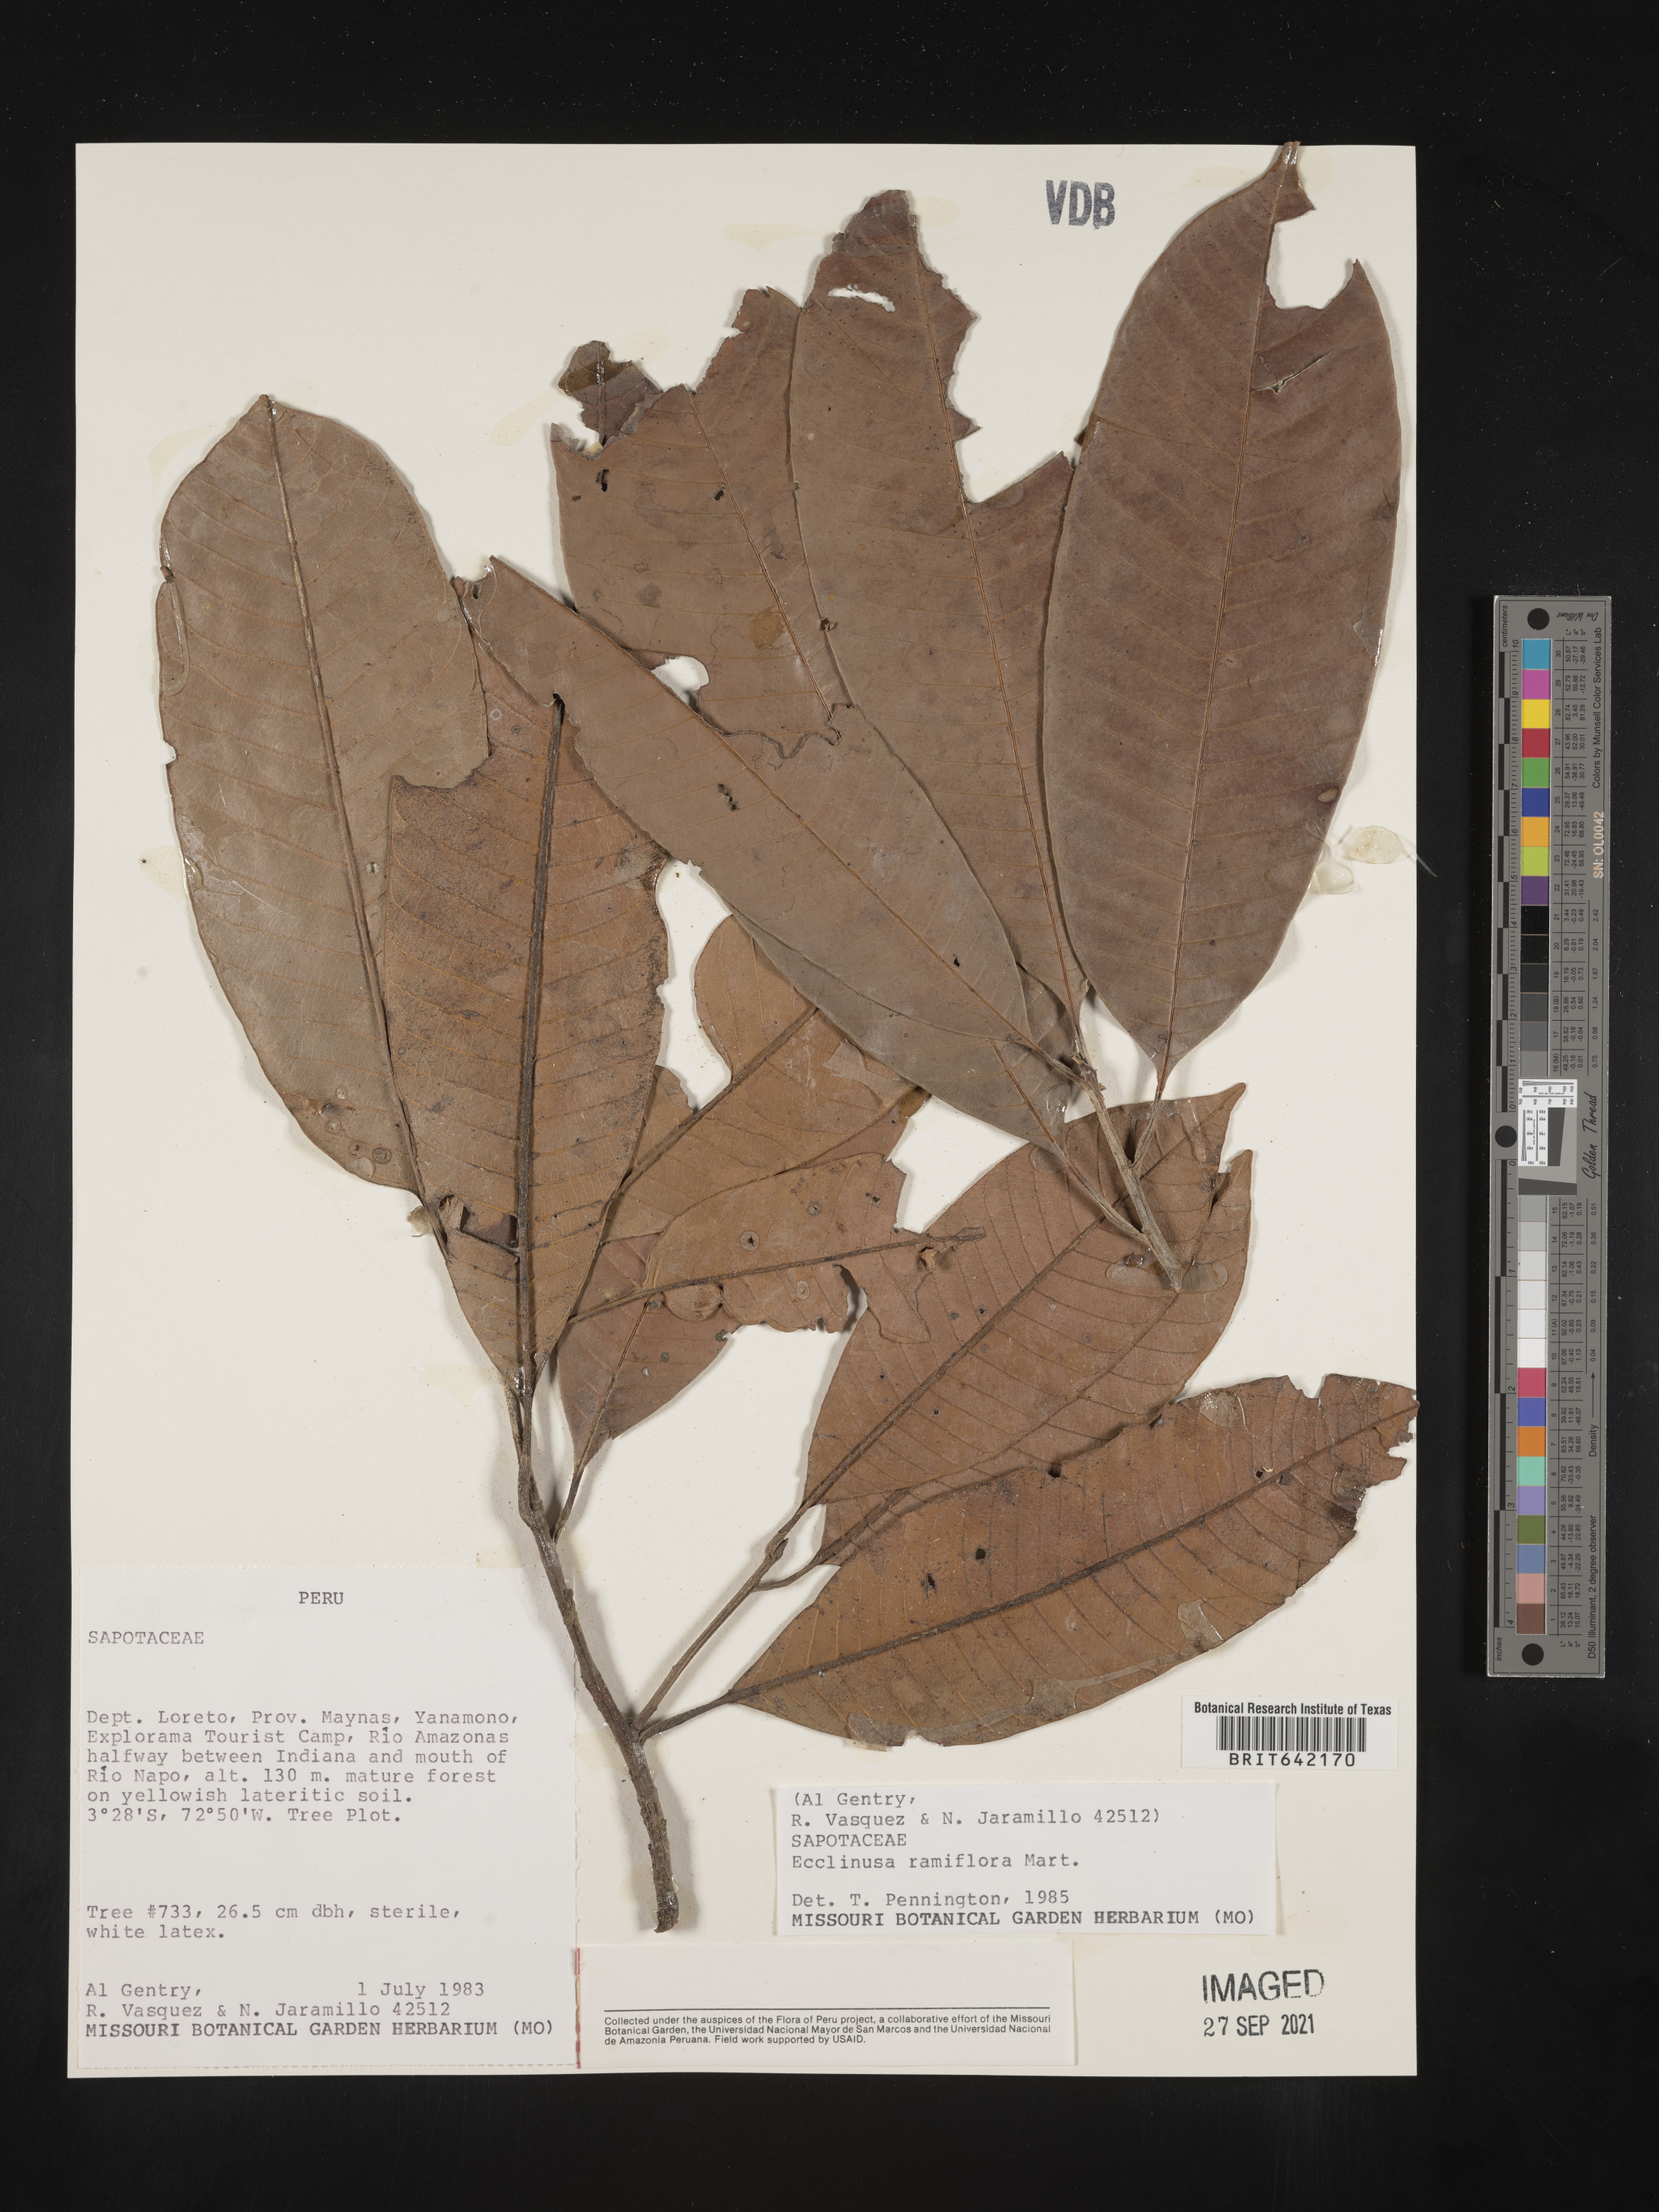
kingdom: Plantae
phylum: Tracheophyta
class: Magnoliopsida
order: Ericales
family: Sapotaceae
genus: Ecclinusa
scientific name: Ecclinusa
